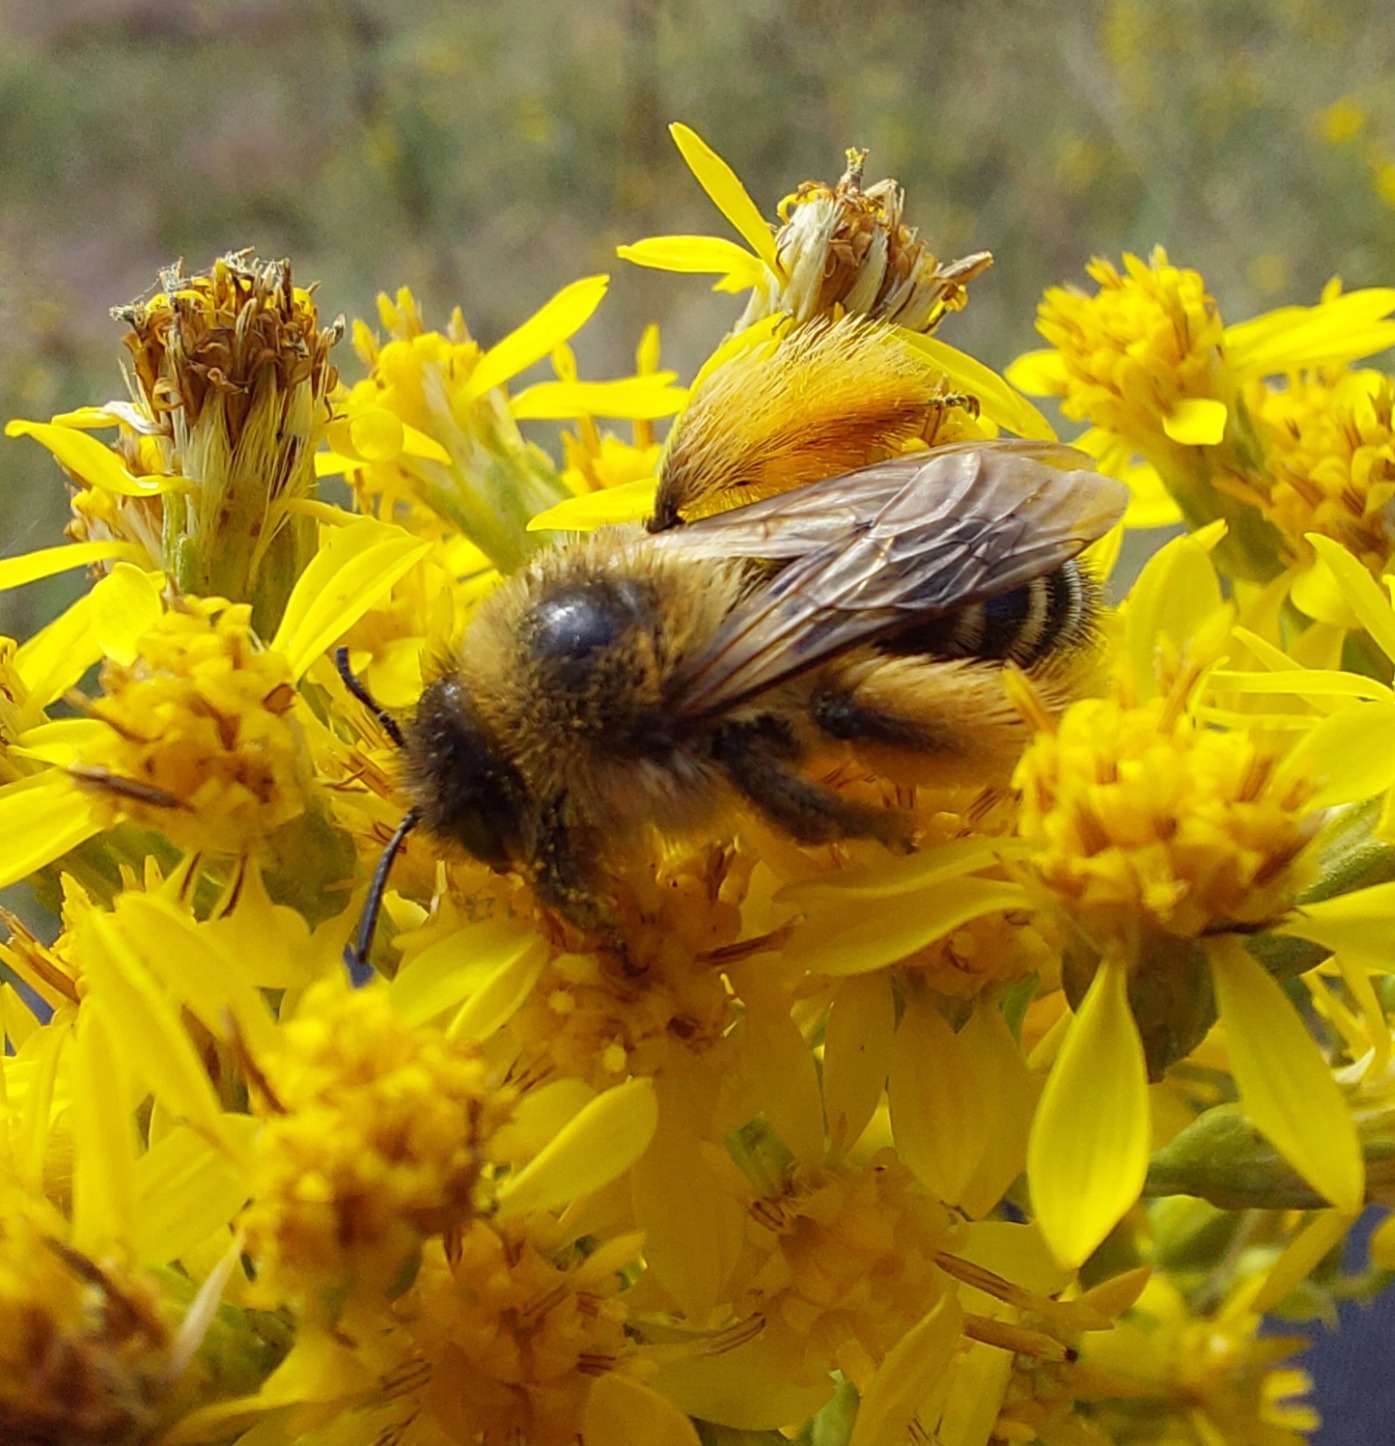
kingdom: Animalia
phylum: Arthropoda
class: Insecta
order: Hymenoptera
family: Melittidae
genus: Dasypoda
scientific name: Dasypoda hirtipes
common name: Pragtbuksebi
